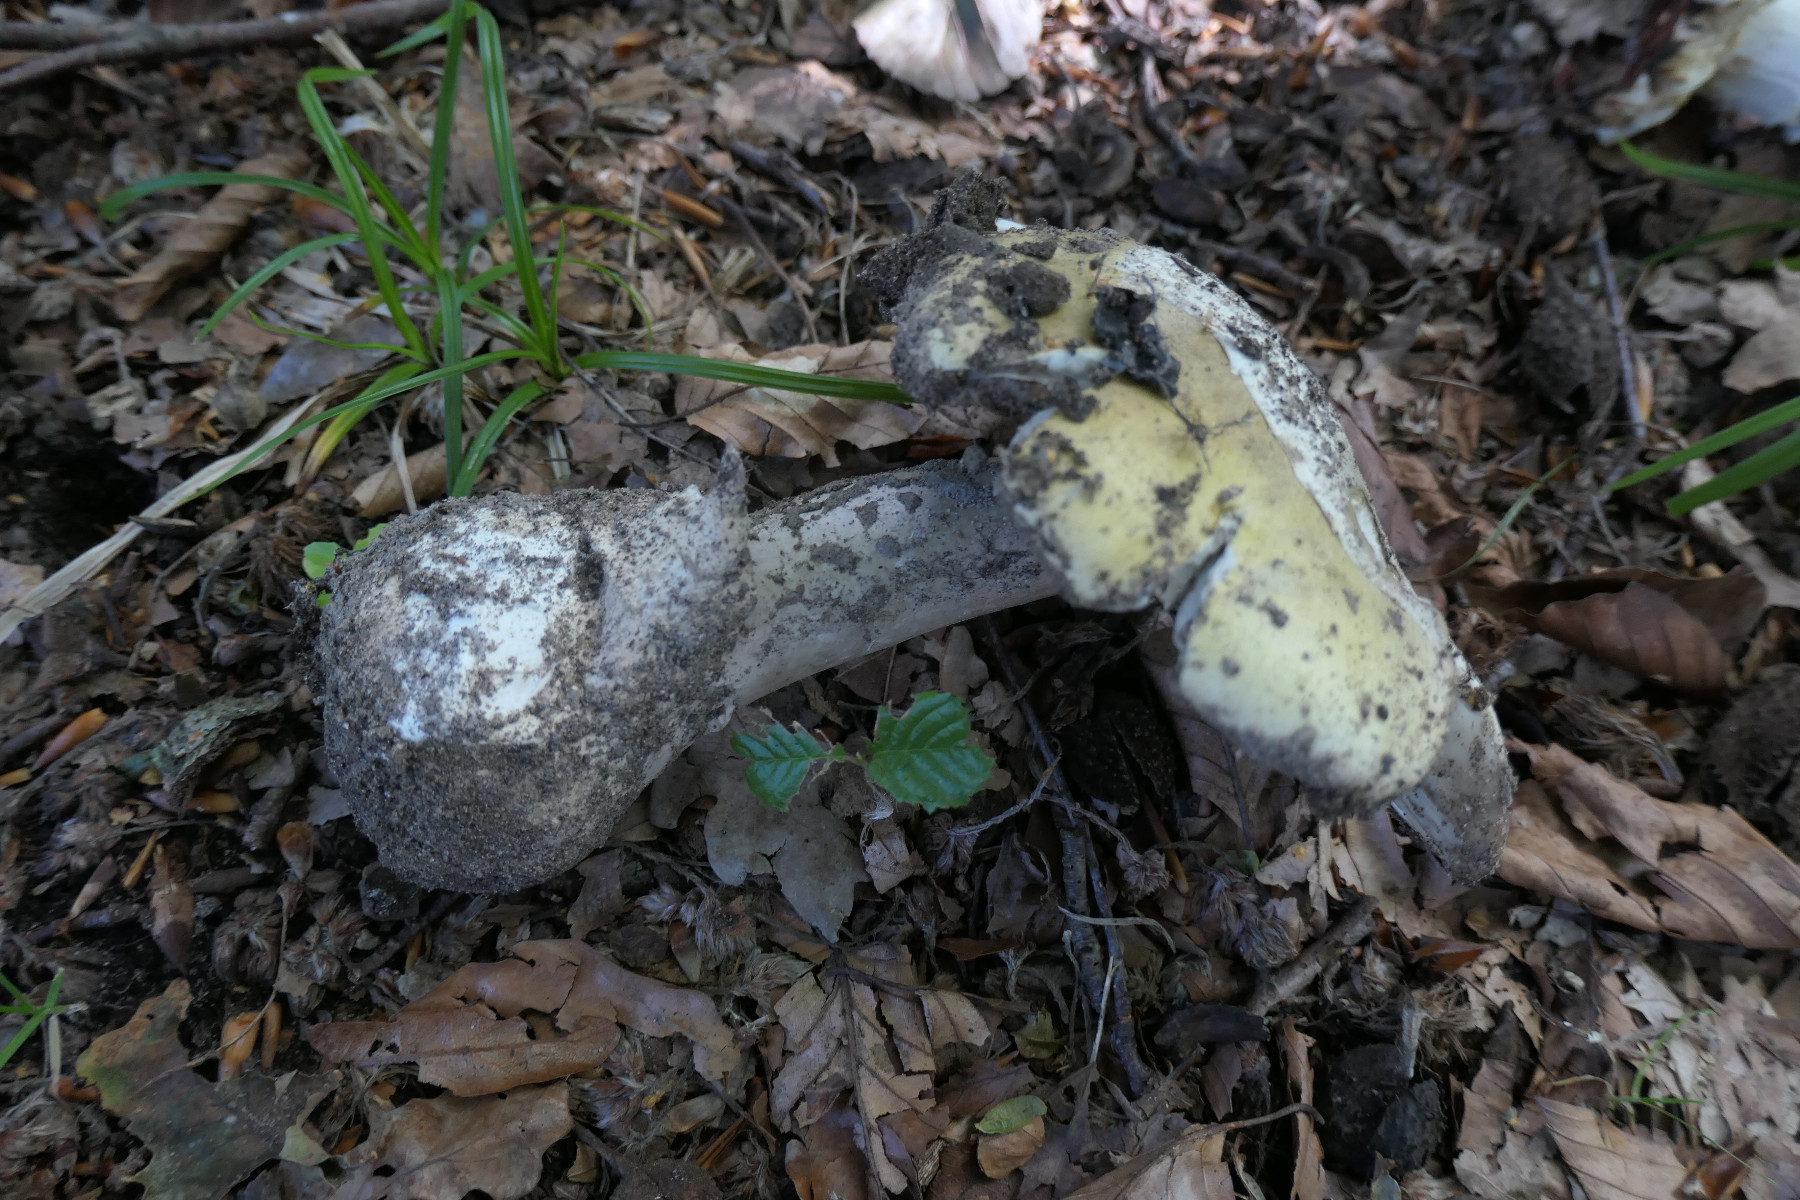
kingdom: Fungi
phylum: Basidiomycota
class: Agaricomycetes
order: Agaricales
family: Amanitaceae
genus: Amanita
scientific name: Amanita phalloides
